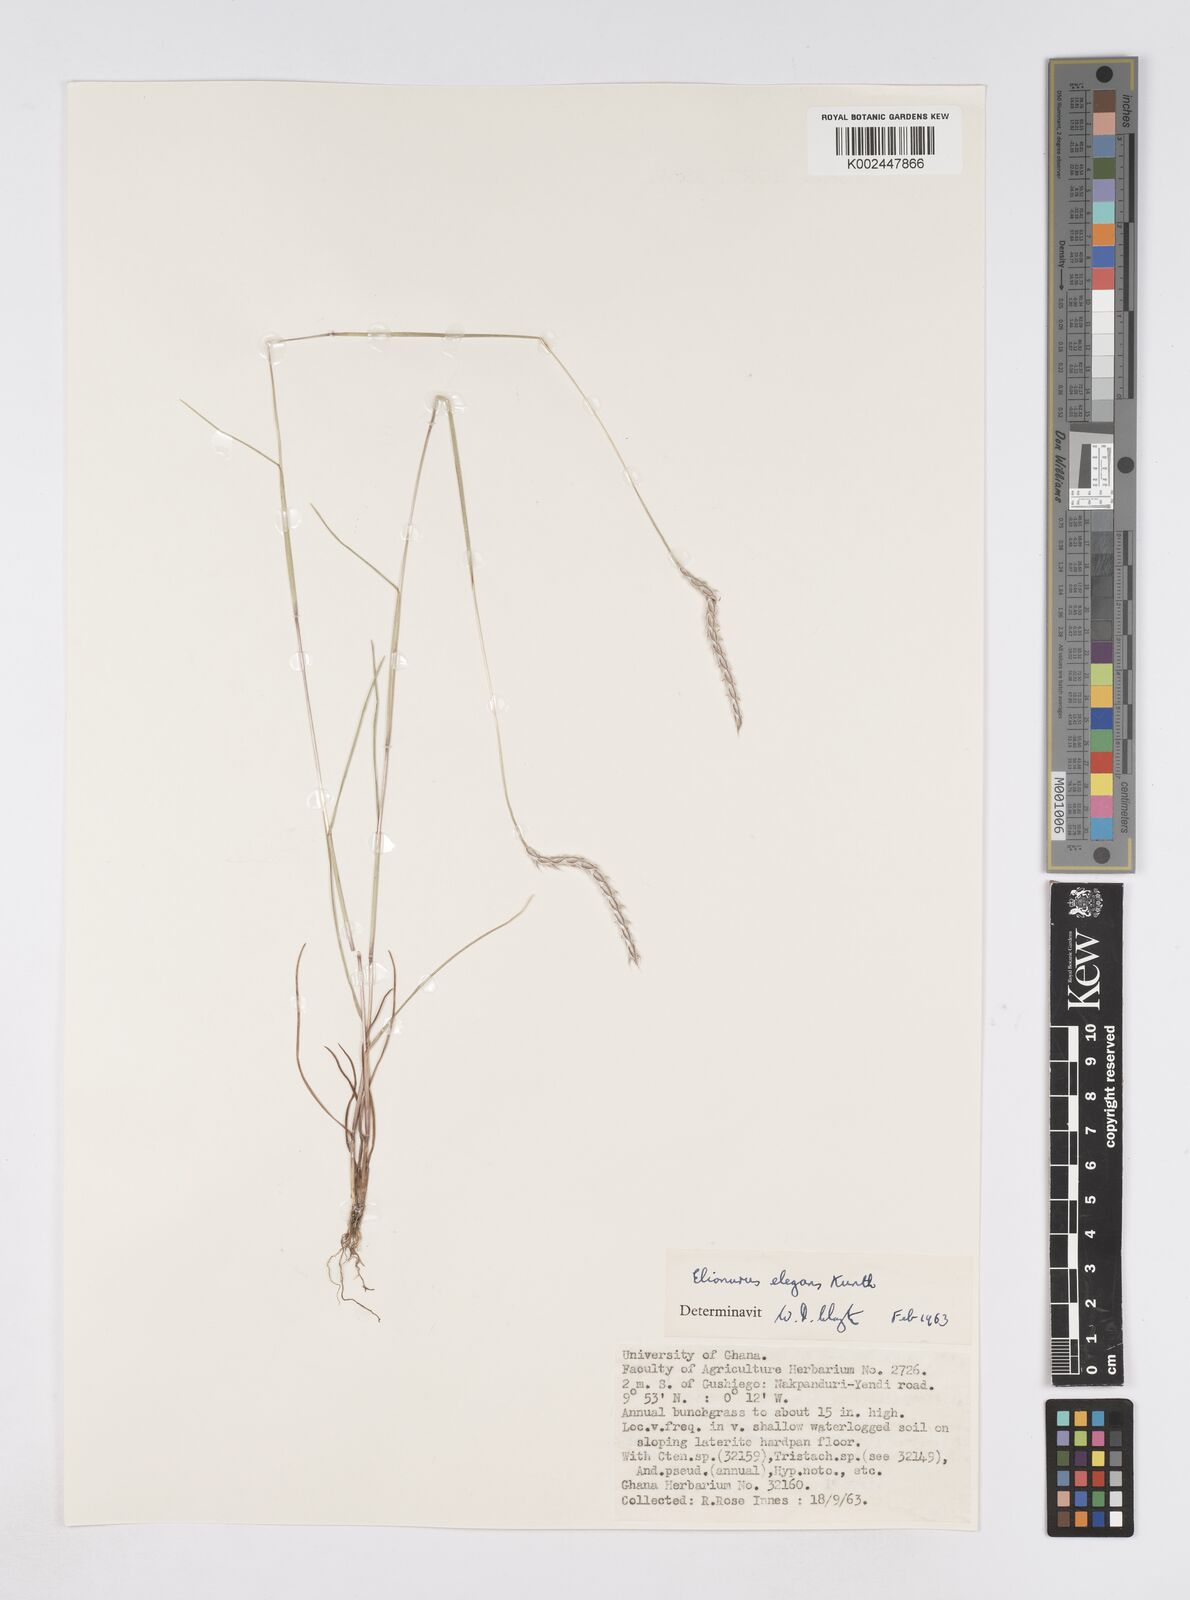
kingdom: Plantae
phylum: Tracheophyta
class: Liliopsida
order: Poales
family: Poaceae
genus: Elionurus
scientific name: Elionurus elegans
